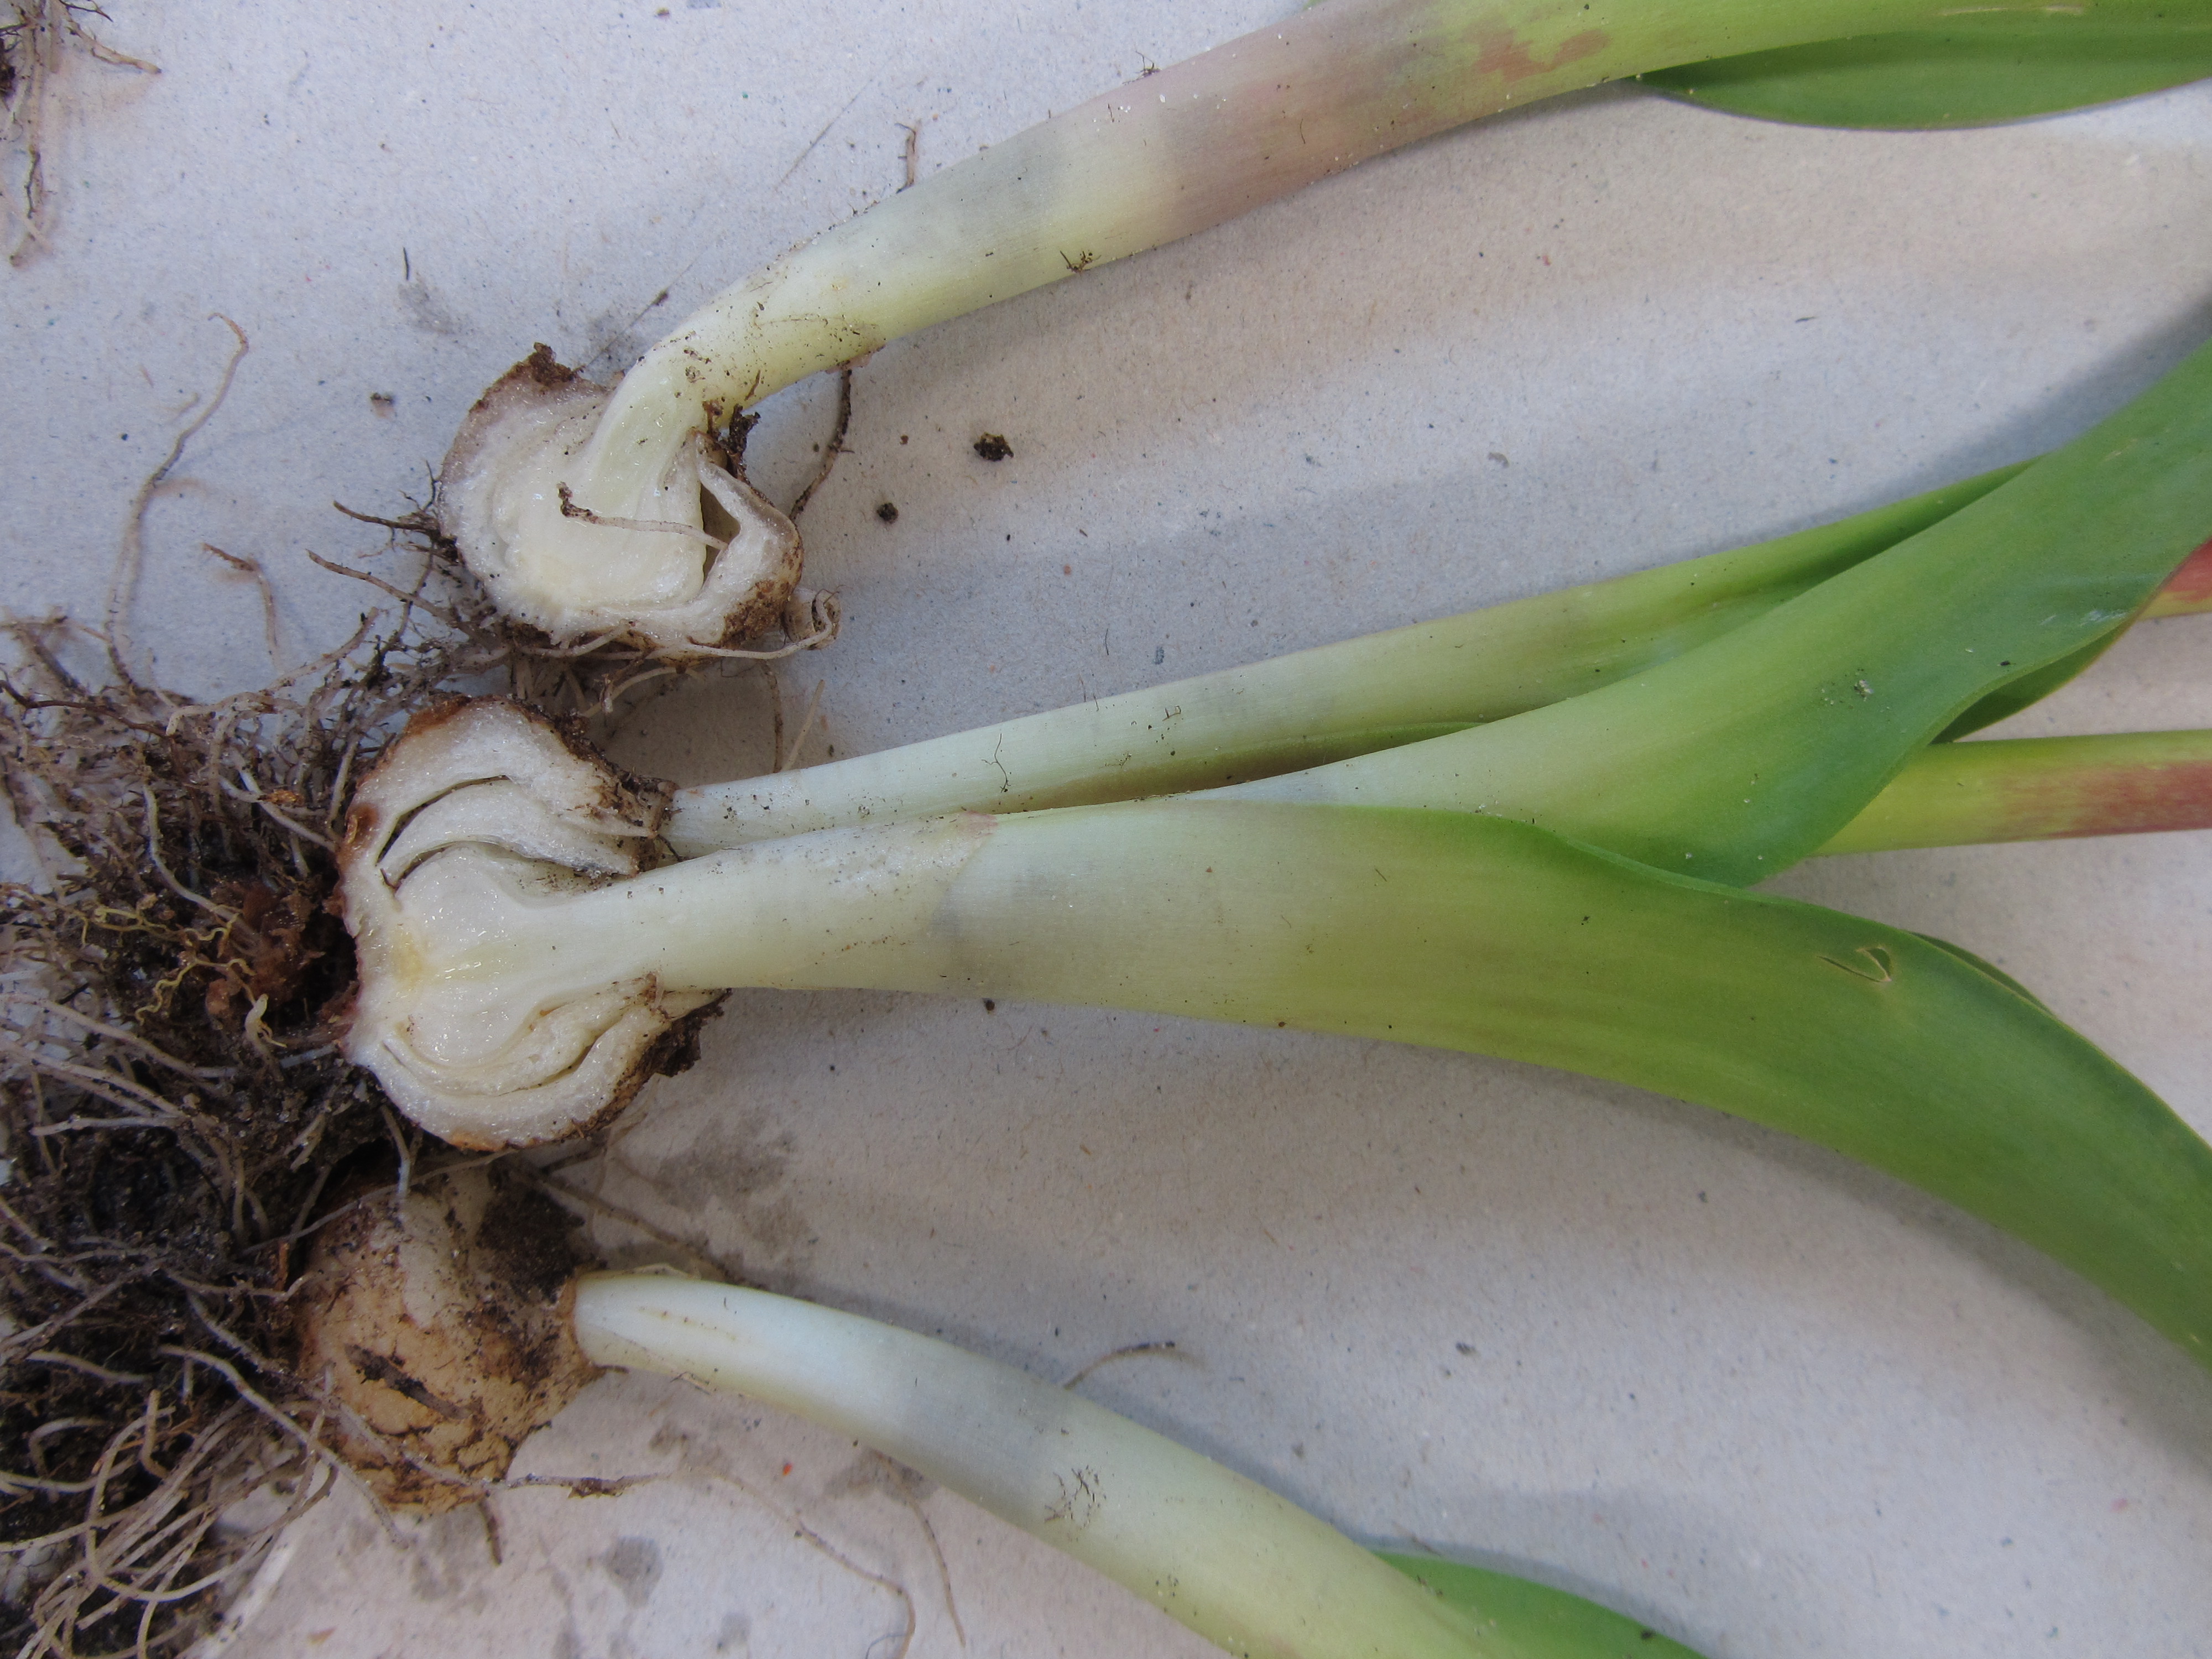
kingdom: Plantae
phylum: Tracheophyta
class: Liliopsida
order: Asparagales
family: Asparagaceae
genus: Lachenalia
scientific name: Lachenalia bulbifera
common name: Red lachenalia
